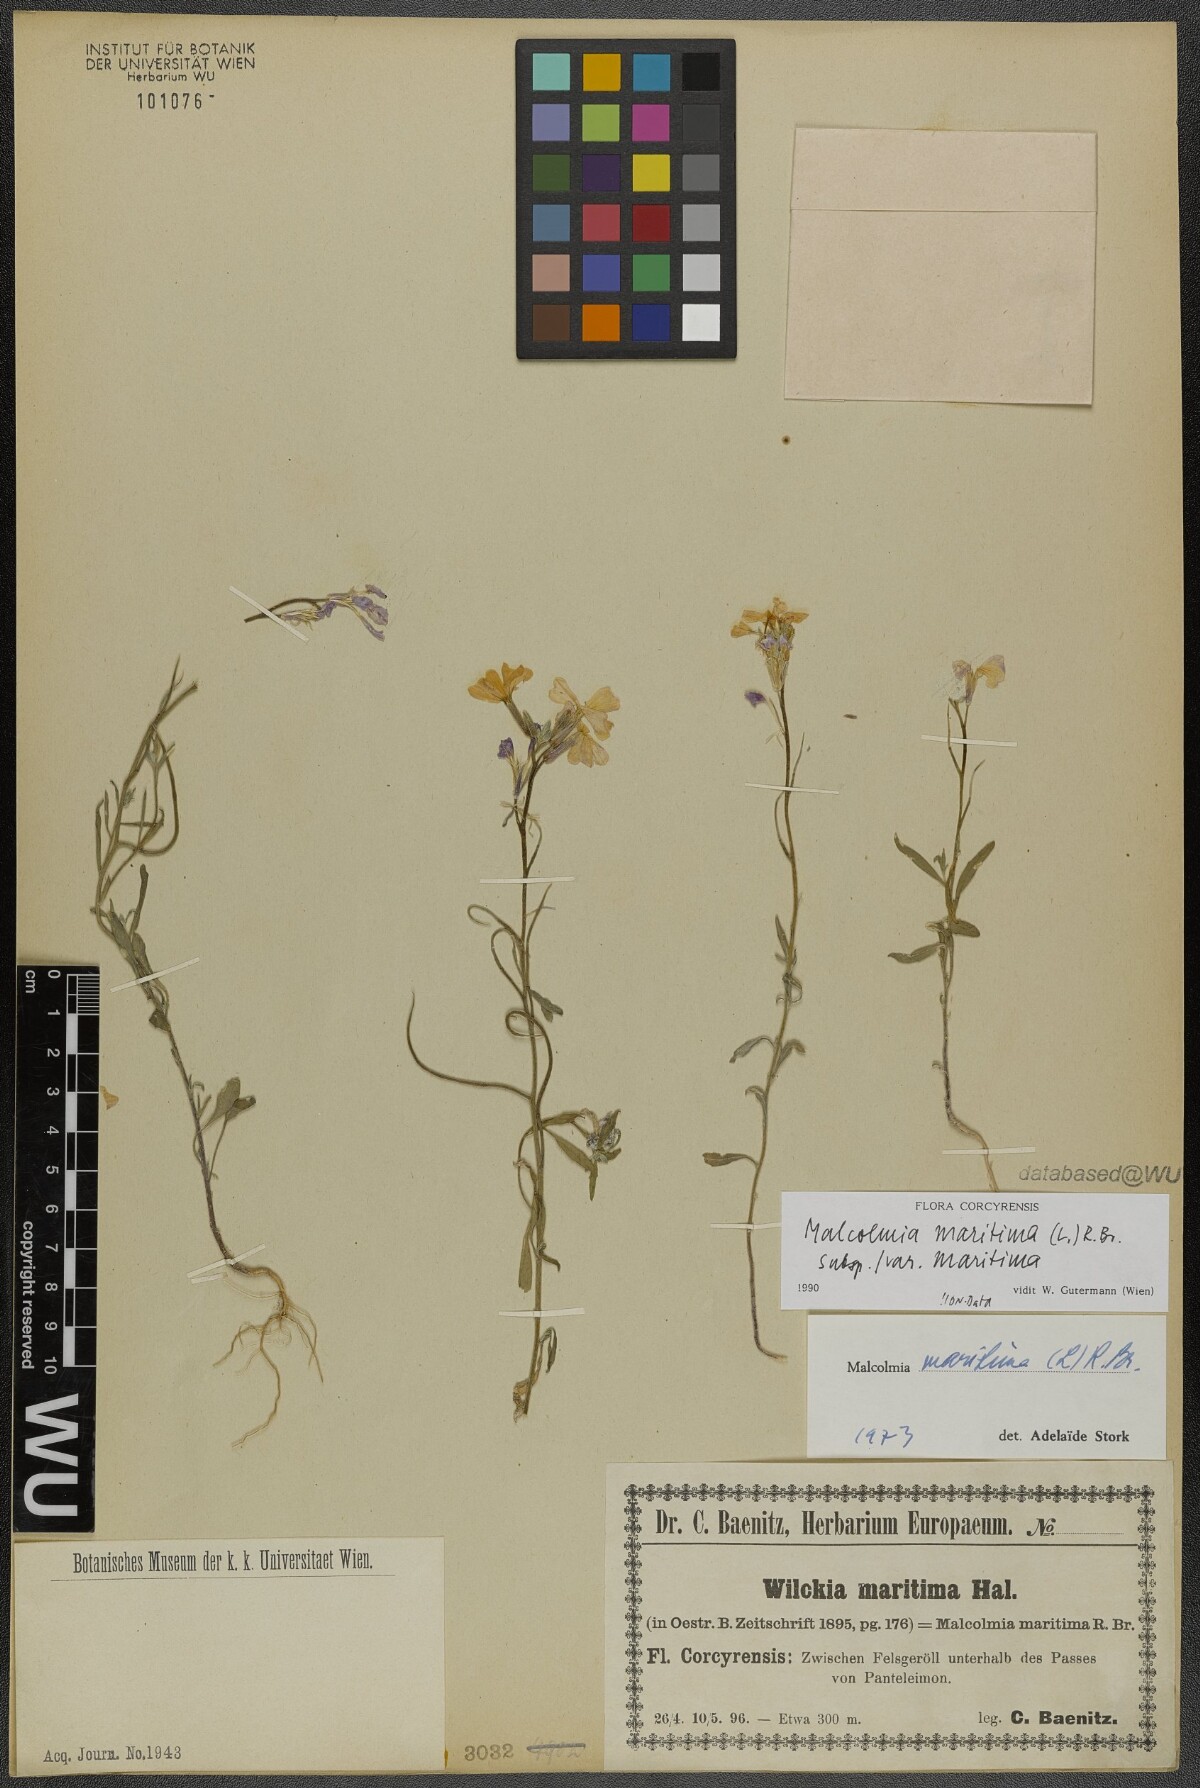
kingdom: Plantae
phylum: Tracheophyta
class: Magnoliopsida
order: Brassicales
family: Brassicaceae
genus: Malcolmia
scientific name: Malcolmia maritima
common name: Virginia stock
